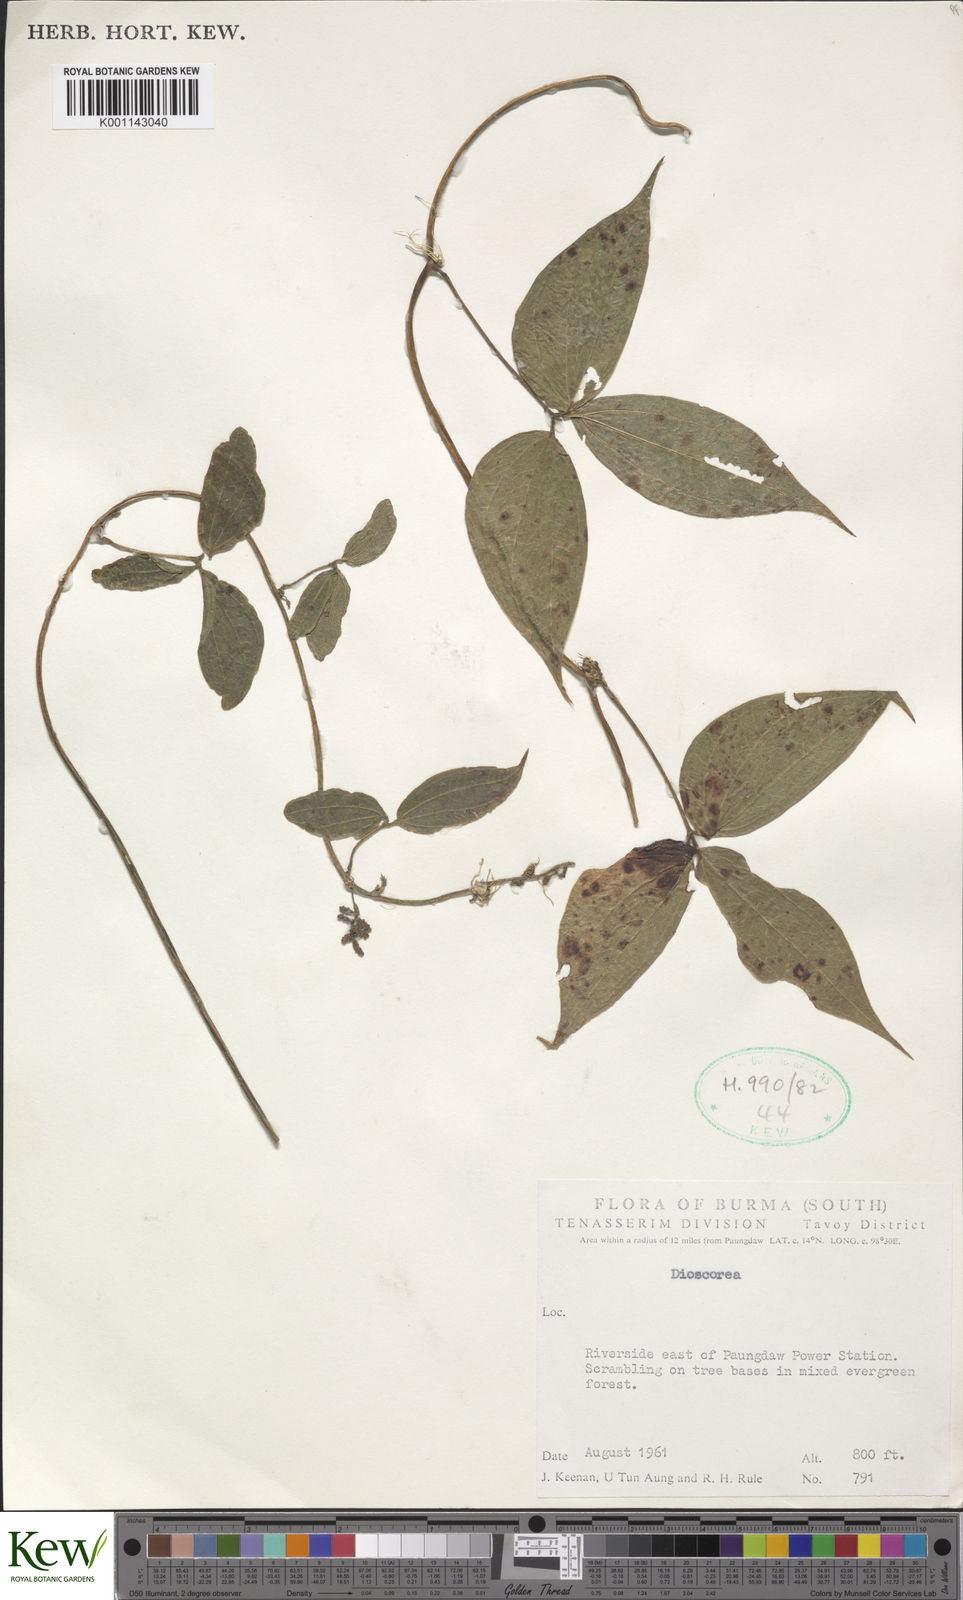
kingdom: Plantae
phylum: Tracheophyta
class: Liliopsida
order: Dioscoreales
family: Dioscoreaceae
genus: Dioscorea
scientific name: Dioscorea
